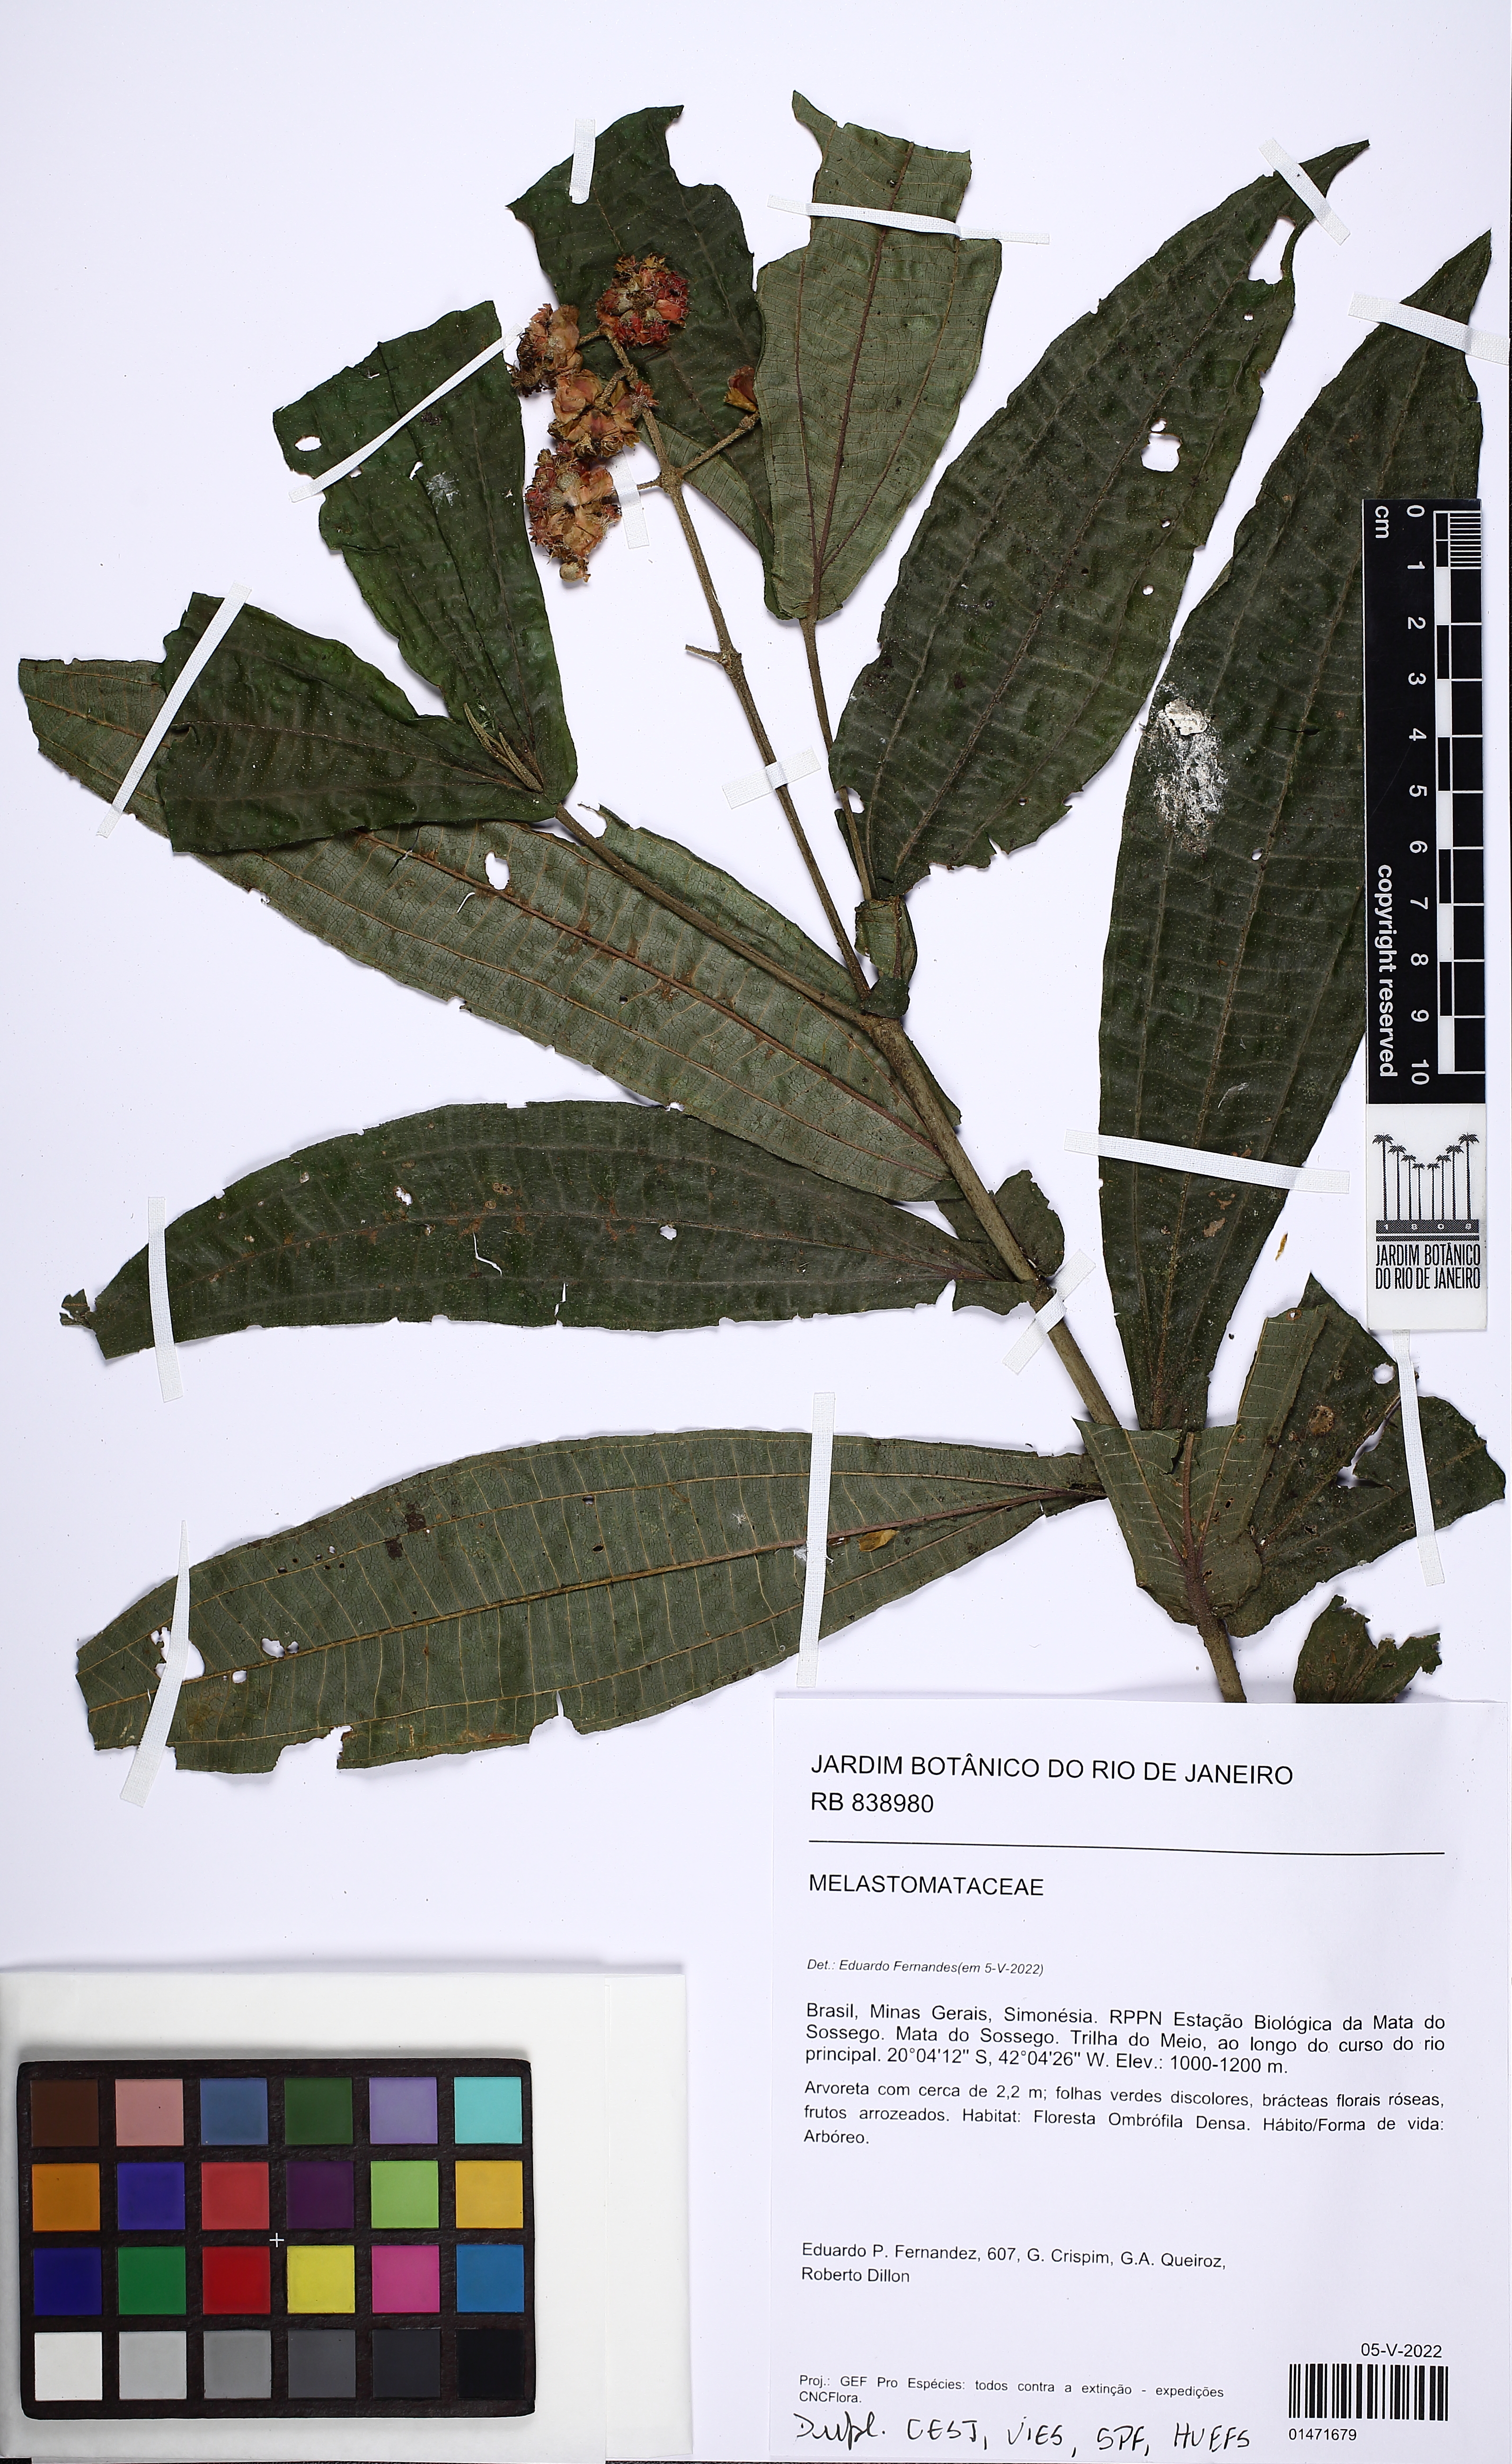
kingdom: Plantae
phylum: Tracheophyta
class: Magnoliopsida
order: Myrtales
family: Melastomataceae
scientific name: Melastomataceae
